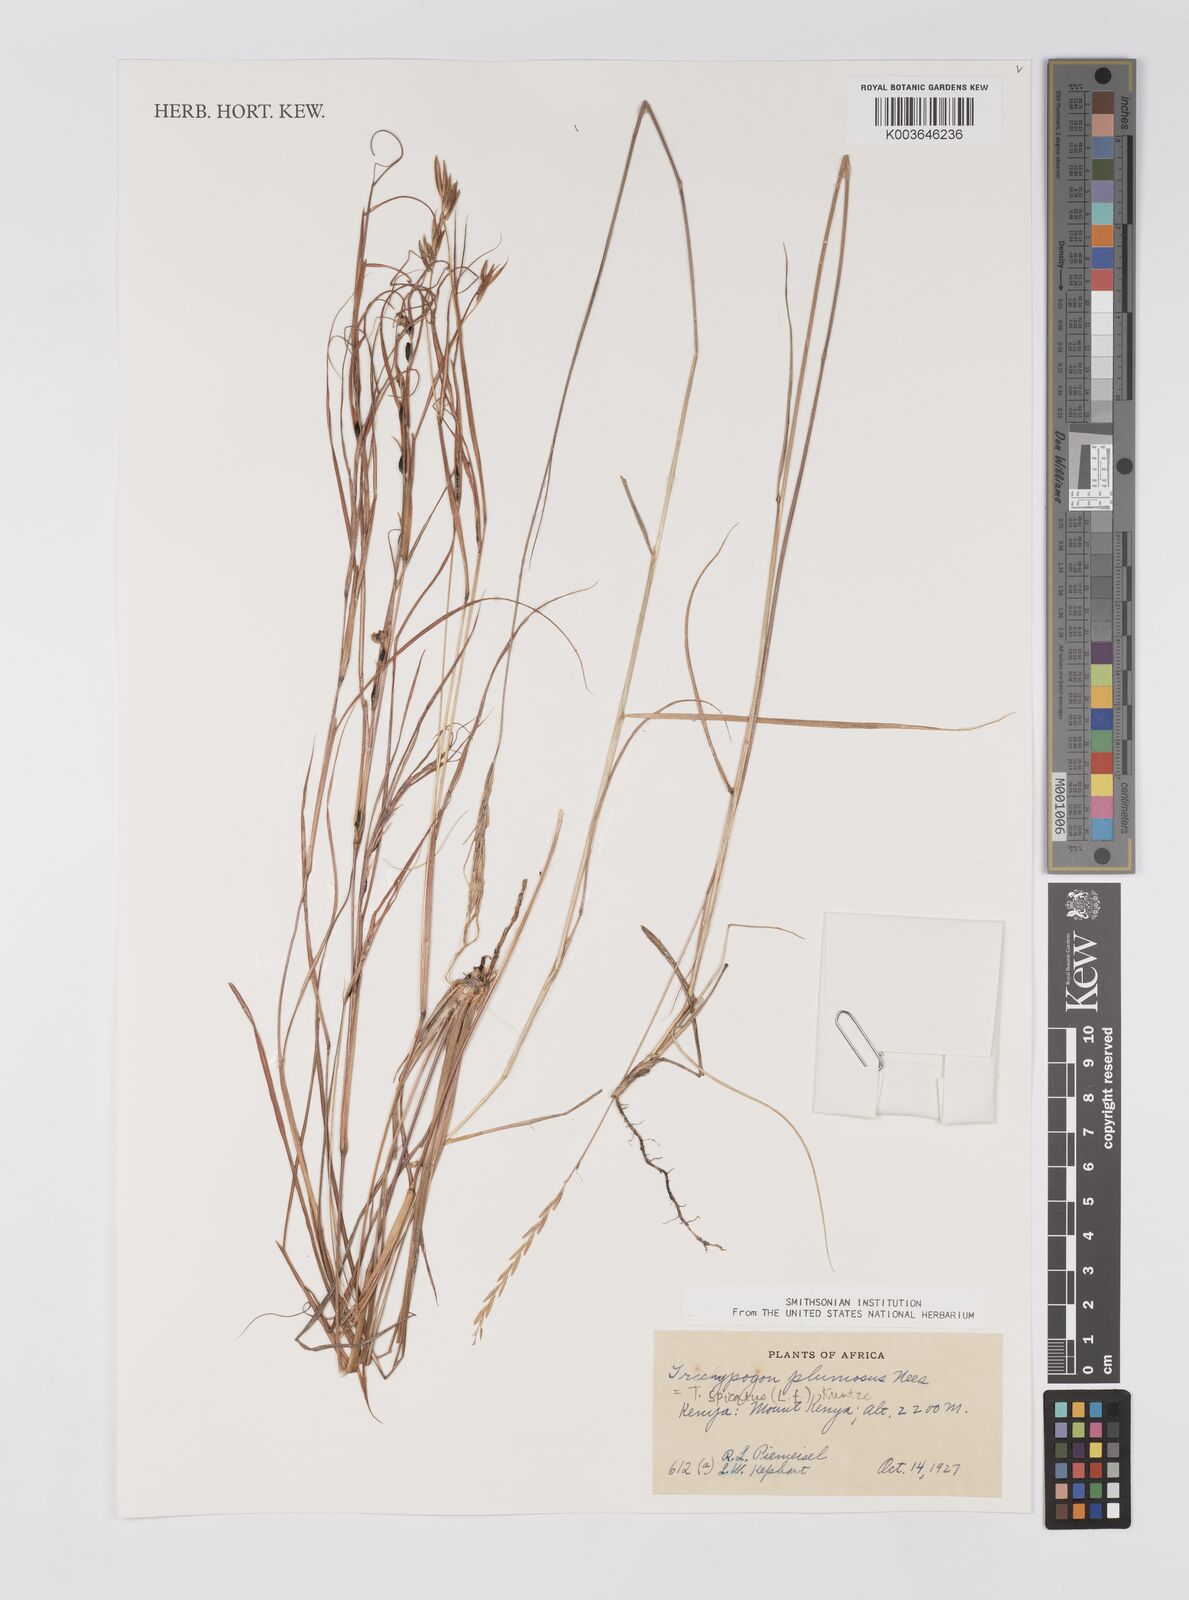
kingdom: Plantae
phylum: Tracheophyta
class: Liliopsida
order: Poales
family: Poaceae
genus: Trachypogon
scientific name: Trachypogon spicatus
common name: Crinkle-awn
